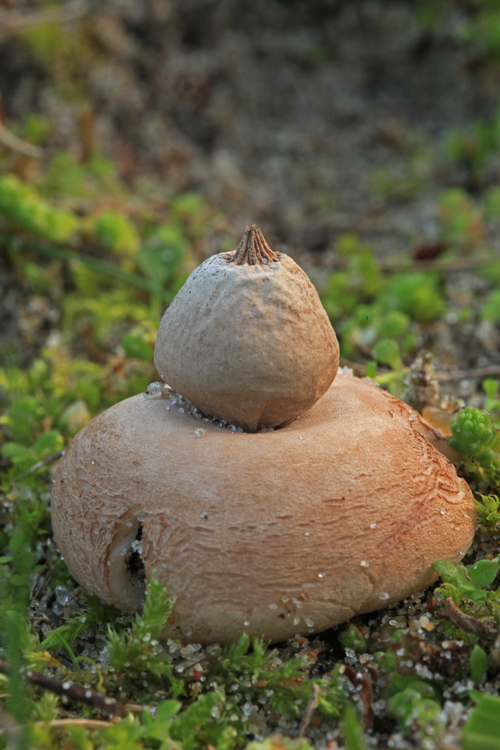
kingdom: Fungi
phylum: Basidiomycota
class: Agaricomycetes
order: Geastrales
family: Geastraceae
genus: Geastrum
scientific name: Geastrum elegans
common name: navle-stjernebold
